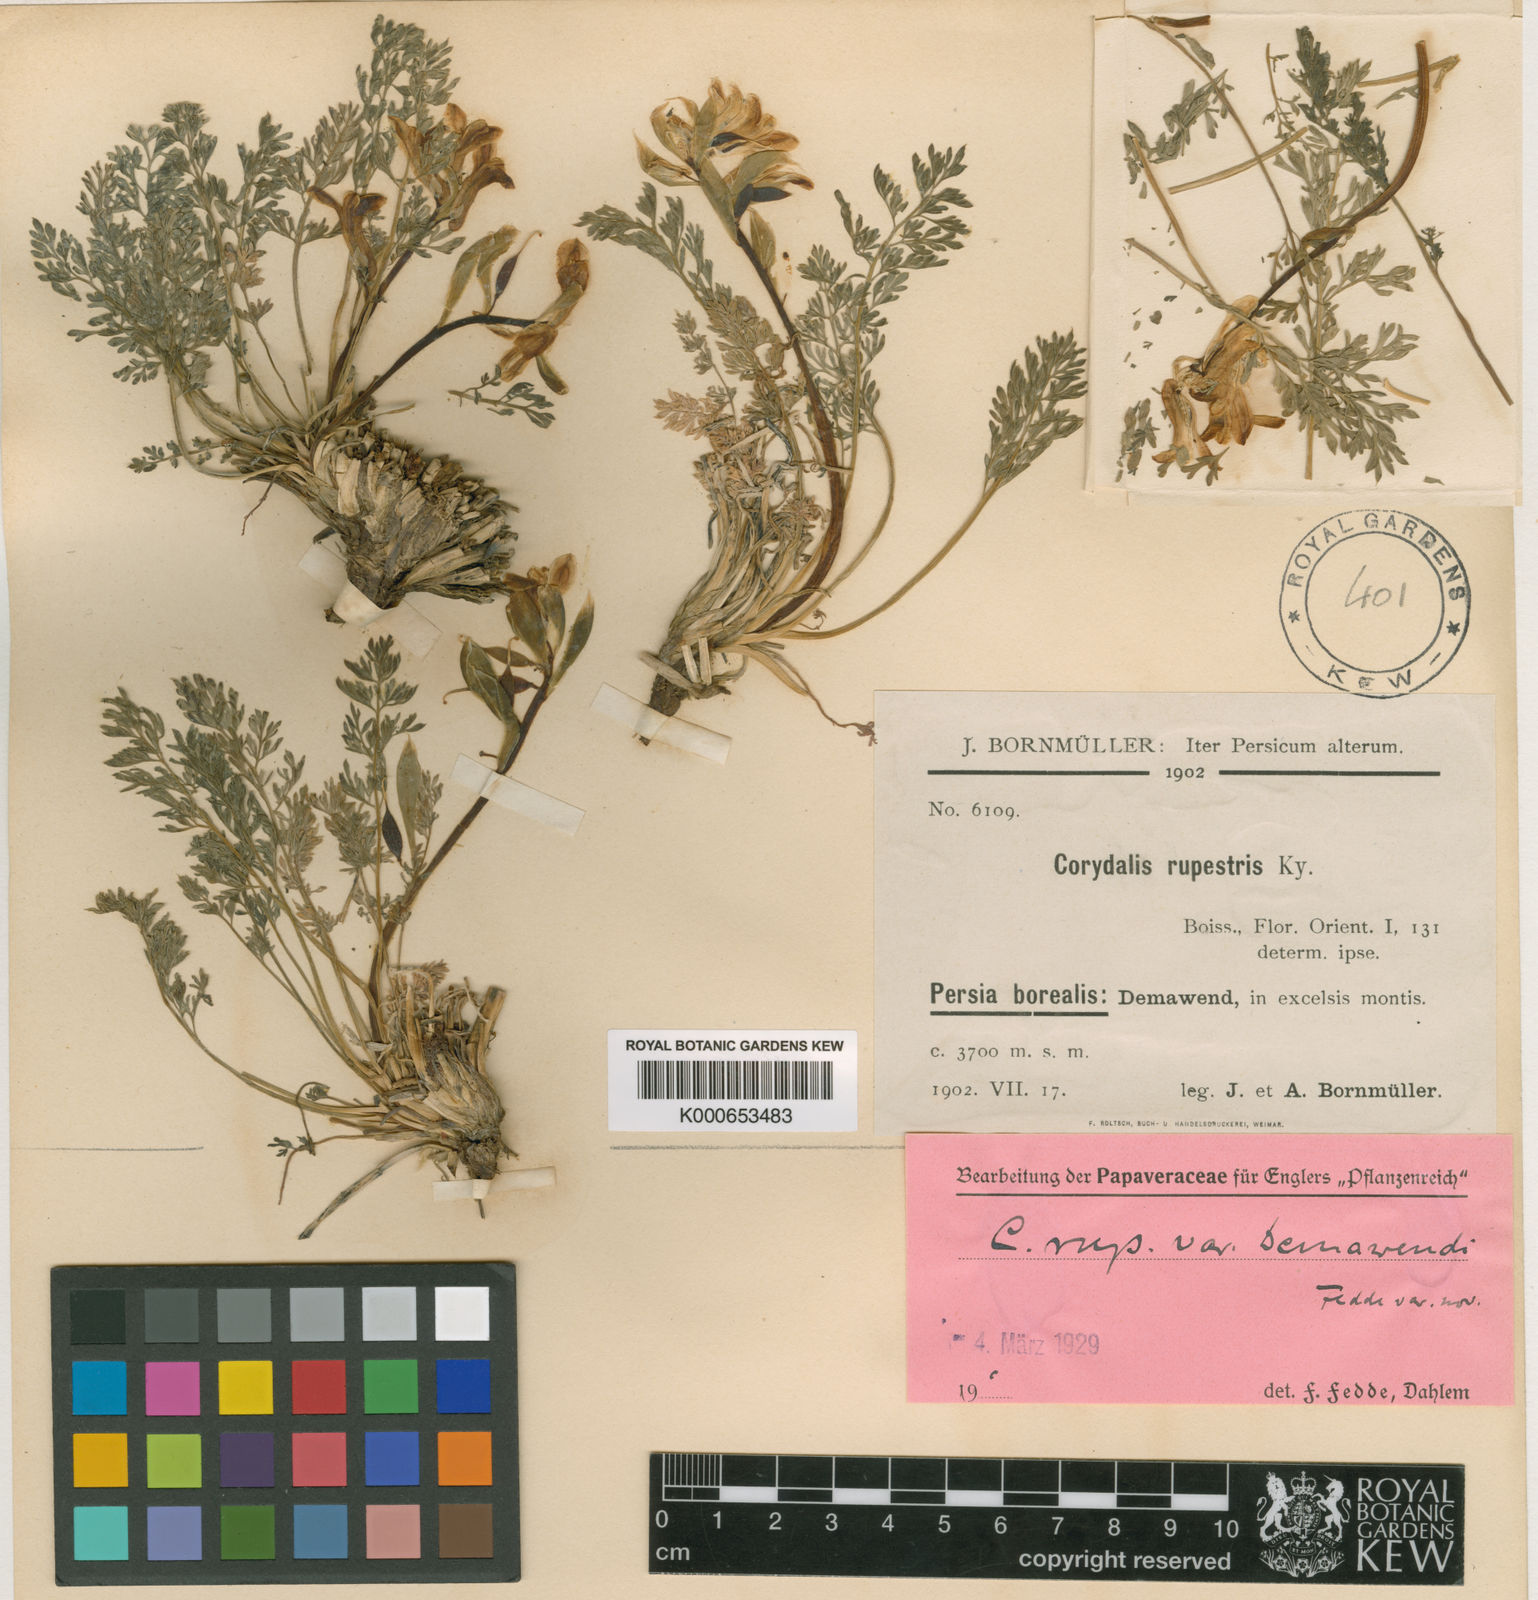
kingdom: Plantae
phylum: Tracheophyta
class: Magnoliopsida
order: Ranunculales
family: Papaveraceae
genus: Corydalis
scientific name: Corydalis
